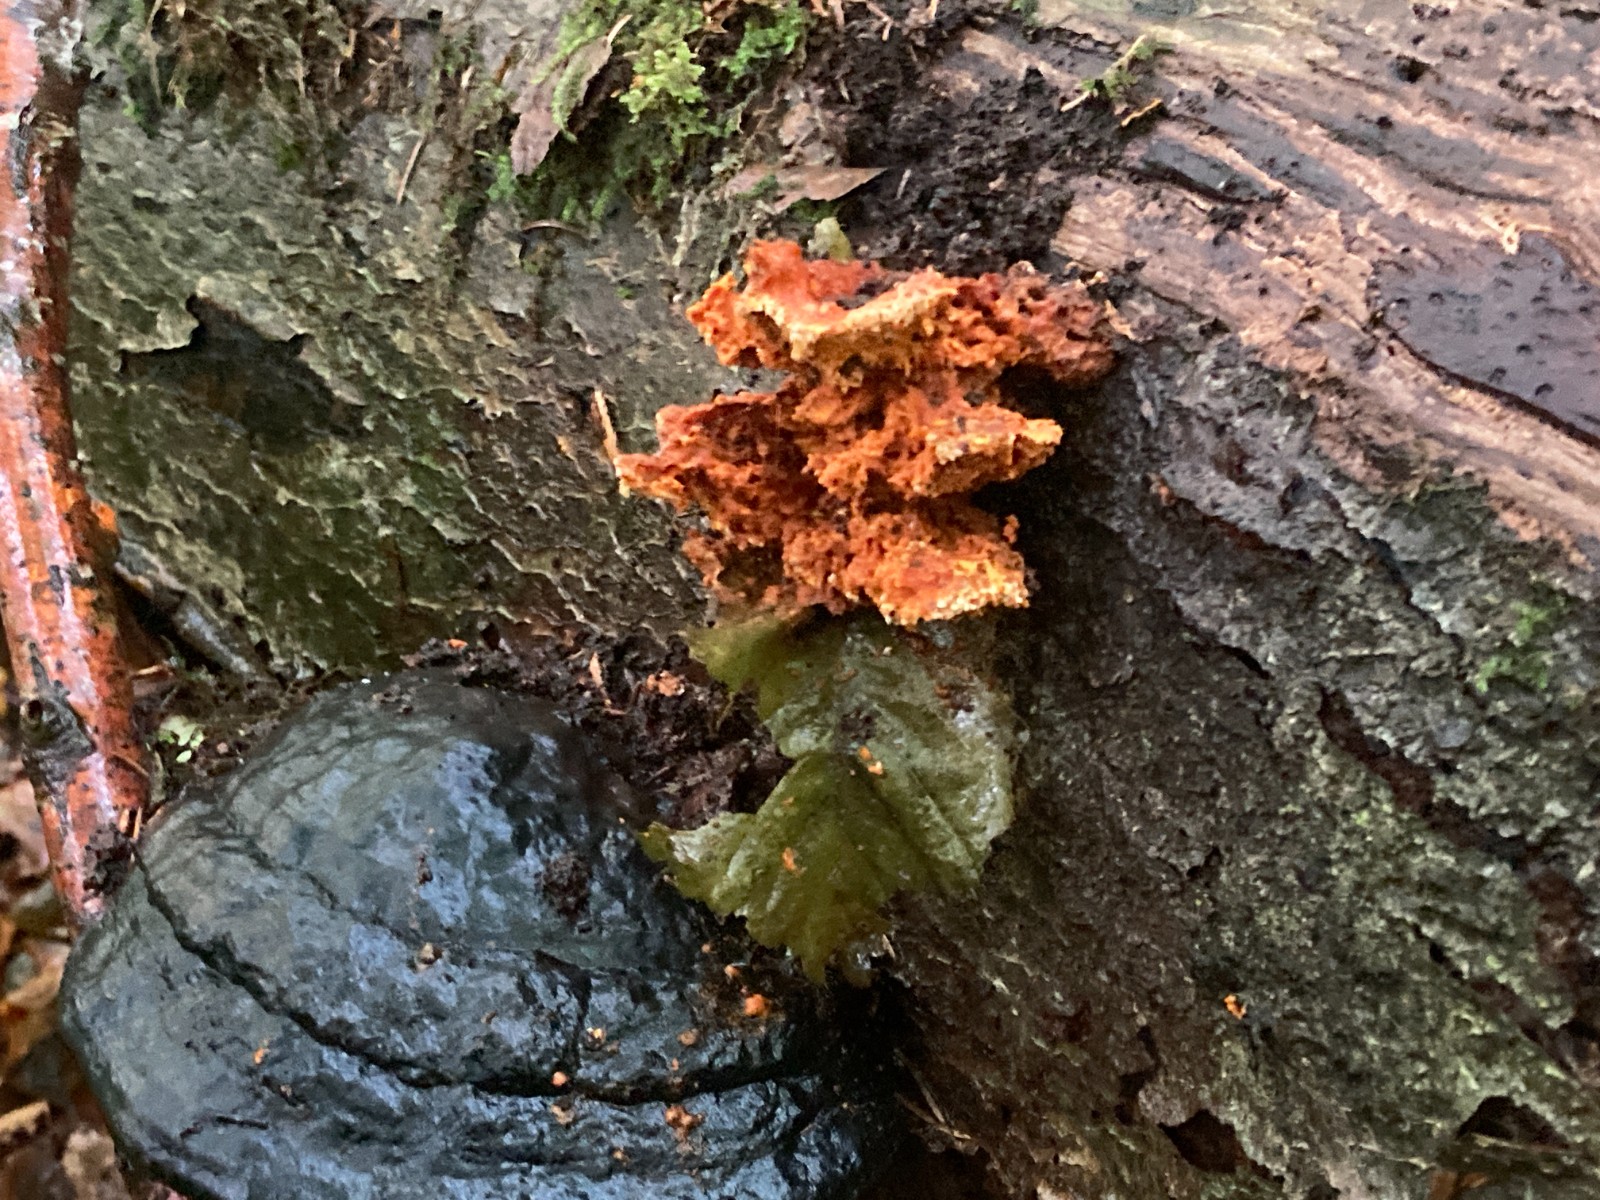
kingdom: Fungi
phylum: Basidiomycota
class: Agaricomycetes
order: Polyporales
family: Pycnoporellaceae
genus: Pycnoporellus
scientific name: Pycnoporellus fulgens
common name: flammeporesvamp
